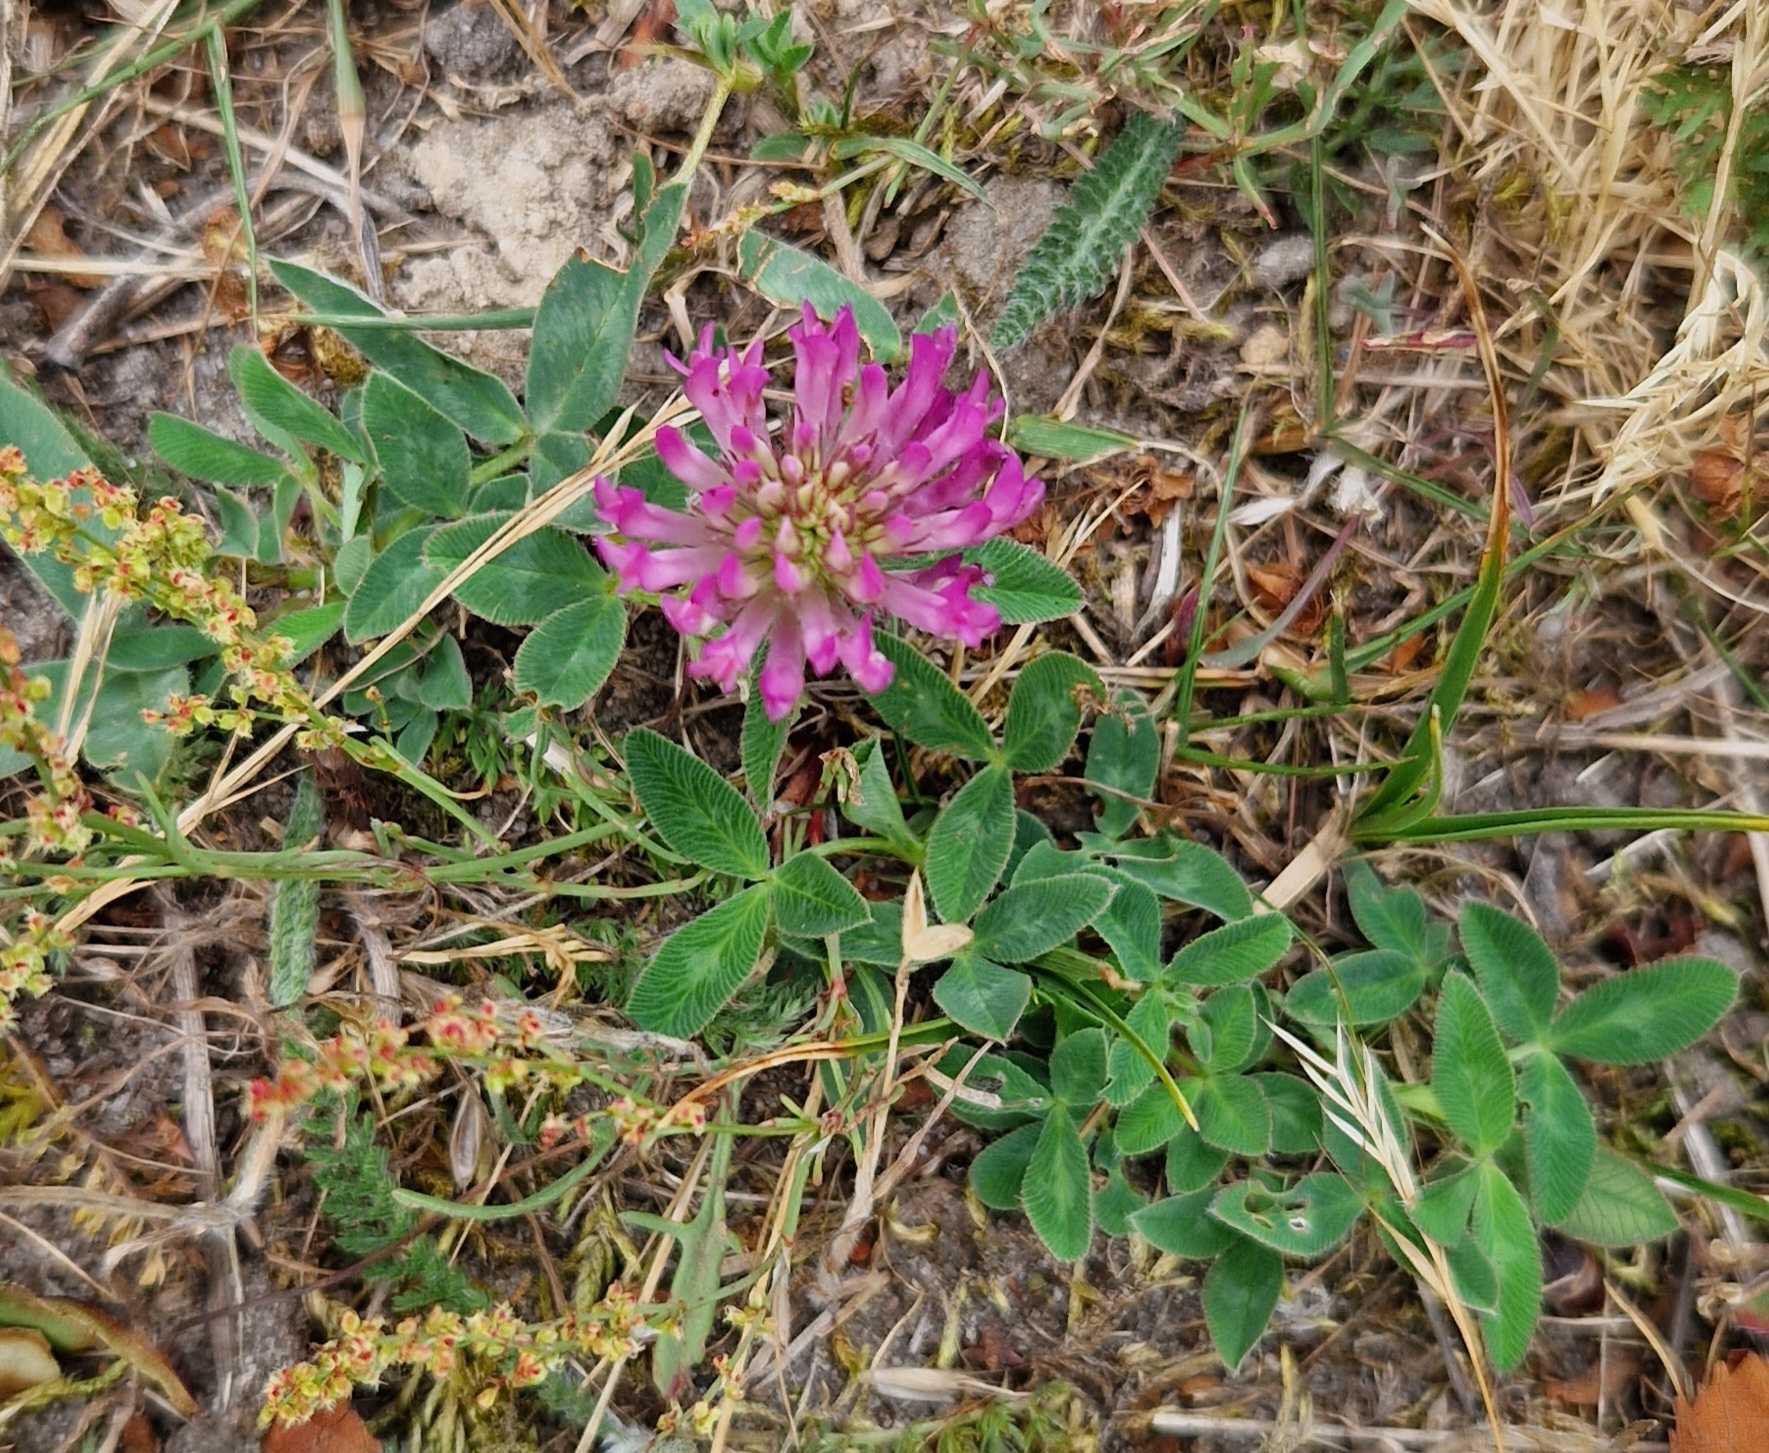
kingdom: Plantae
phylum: Tracheophyta
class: Magnoliopsida
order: Fabales
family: Fabaceae
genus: Trifolium
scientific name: Trifolium medium
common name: Bugtet kløver
